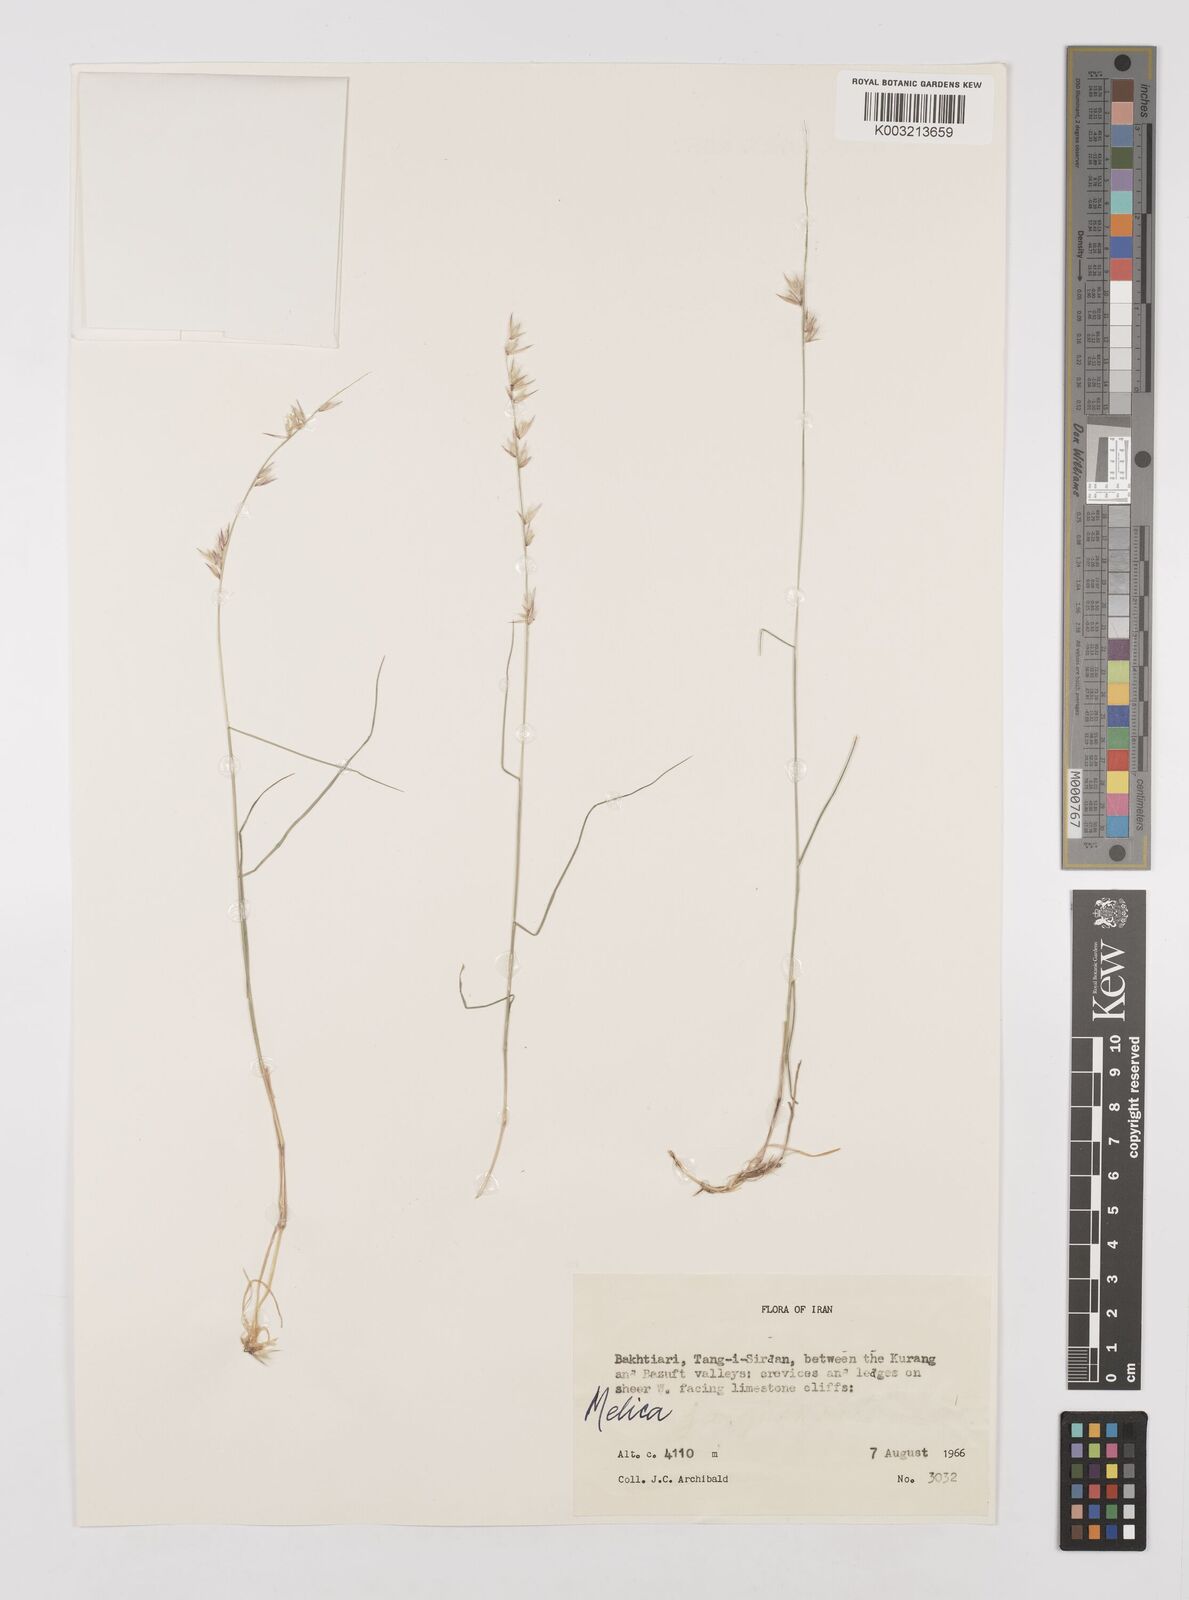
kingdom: Plantae
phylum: Tracheophyta
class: Liliopsida
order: Poales
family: Poaceae
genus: Melica
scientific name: Melica
